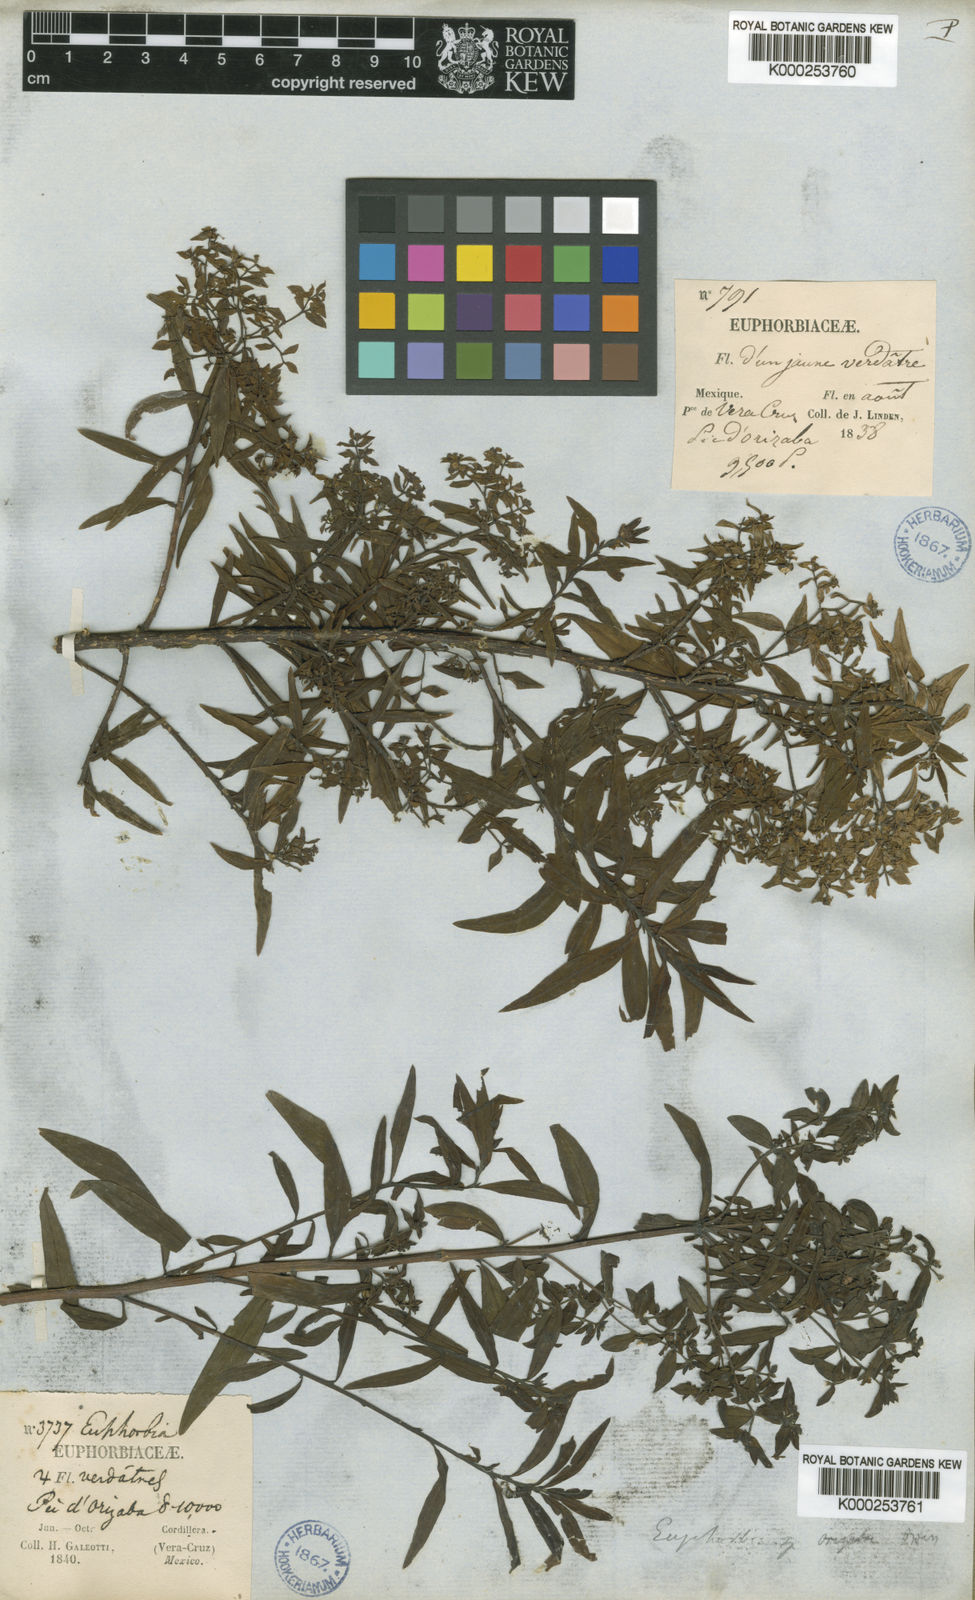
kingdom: Plantae
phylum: Tracheophyta
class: Magnoliopsida
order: Malpighiales
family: Euphorbiaceae
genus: Euphorbia
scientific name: Euphorbia orizabae
